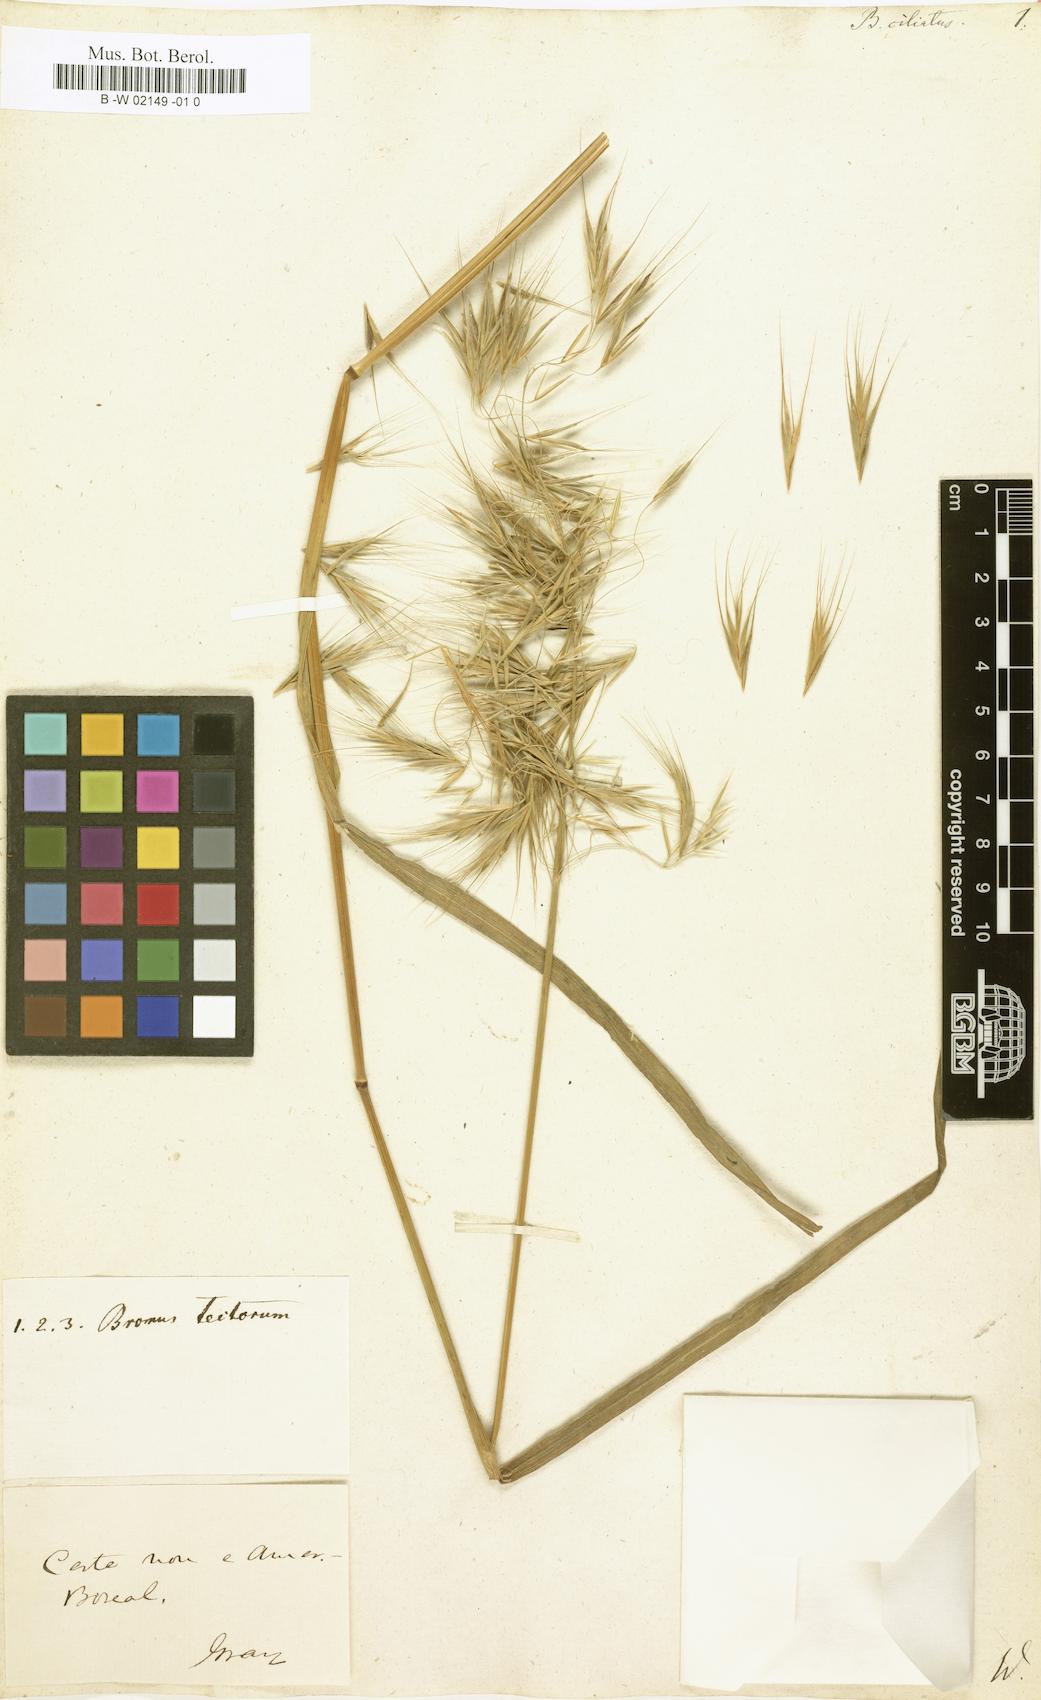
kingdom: Plantae
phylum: Tracheophyta
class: Liliopsida
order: Poales
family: Poaceae
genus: Bromus
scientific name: Bromus ciliatus
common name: Fringe brome
